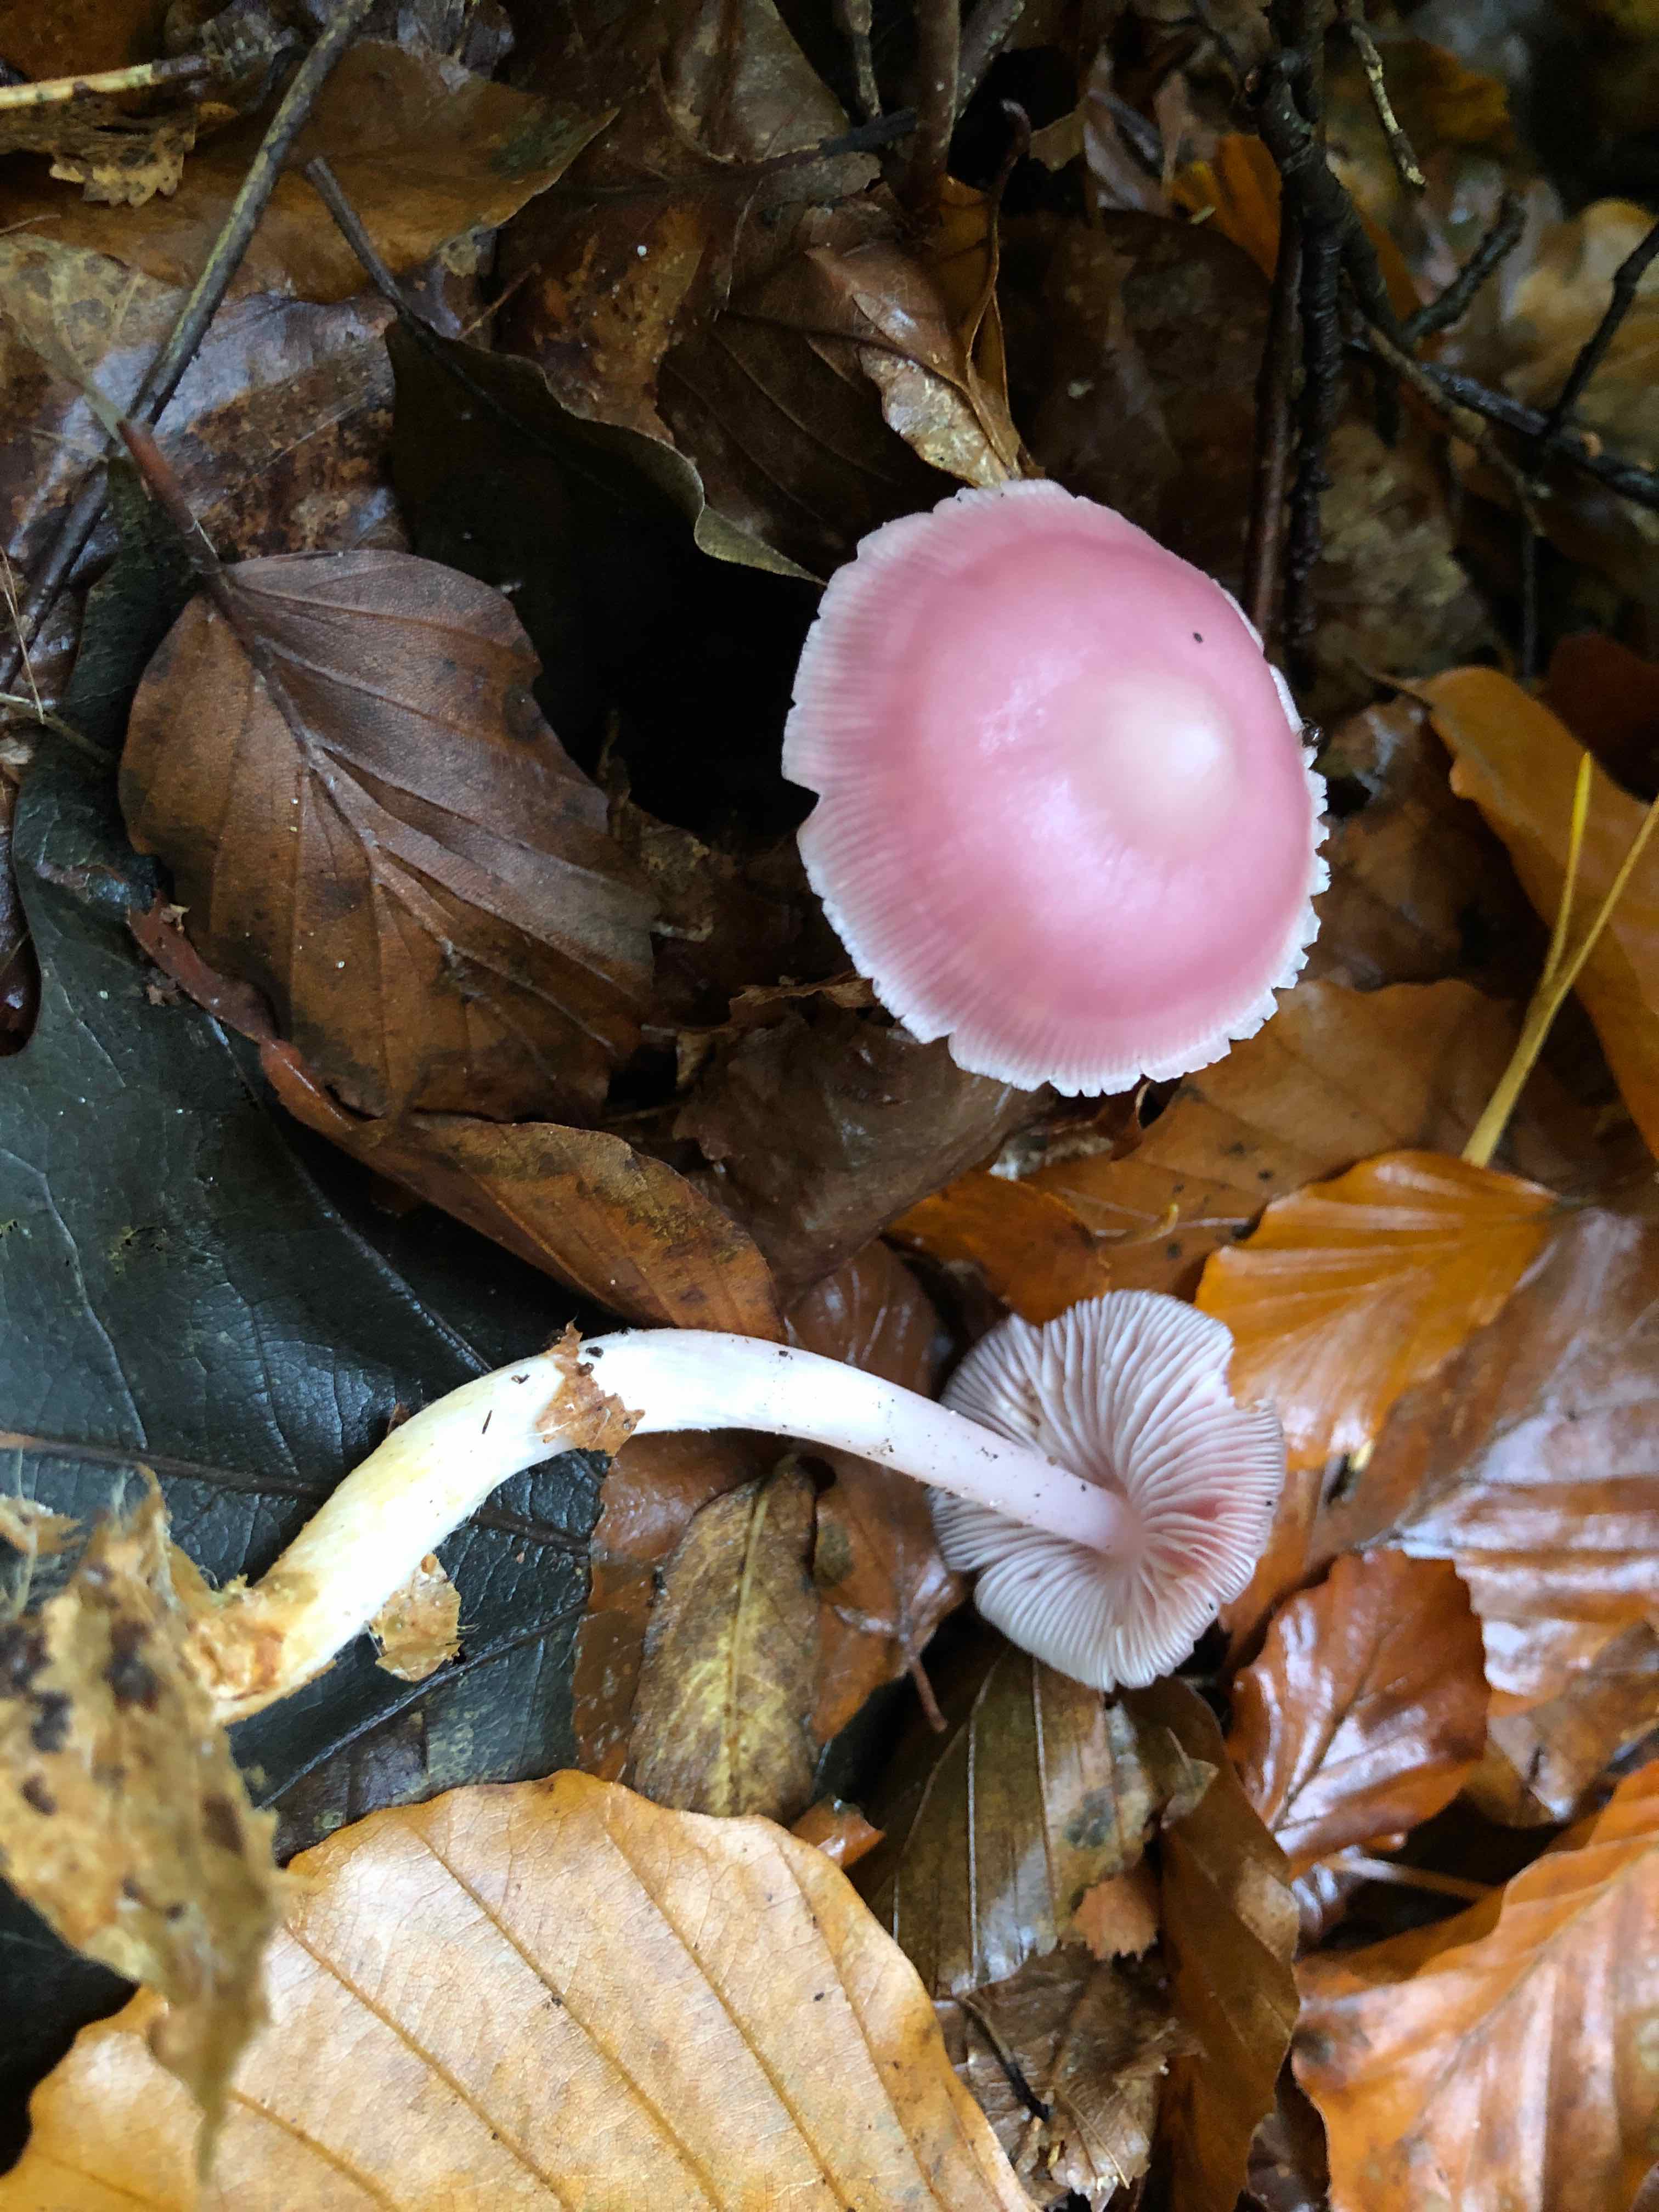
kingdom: Fungi
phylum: Basidiomycota
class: Agaricomycetes
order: Agaricales
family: Mycenaceae
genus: Mycena
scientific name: Mycena rosea
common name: rosa huesvamp
